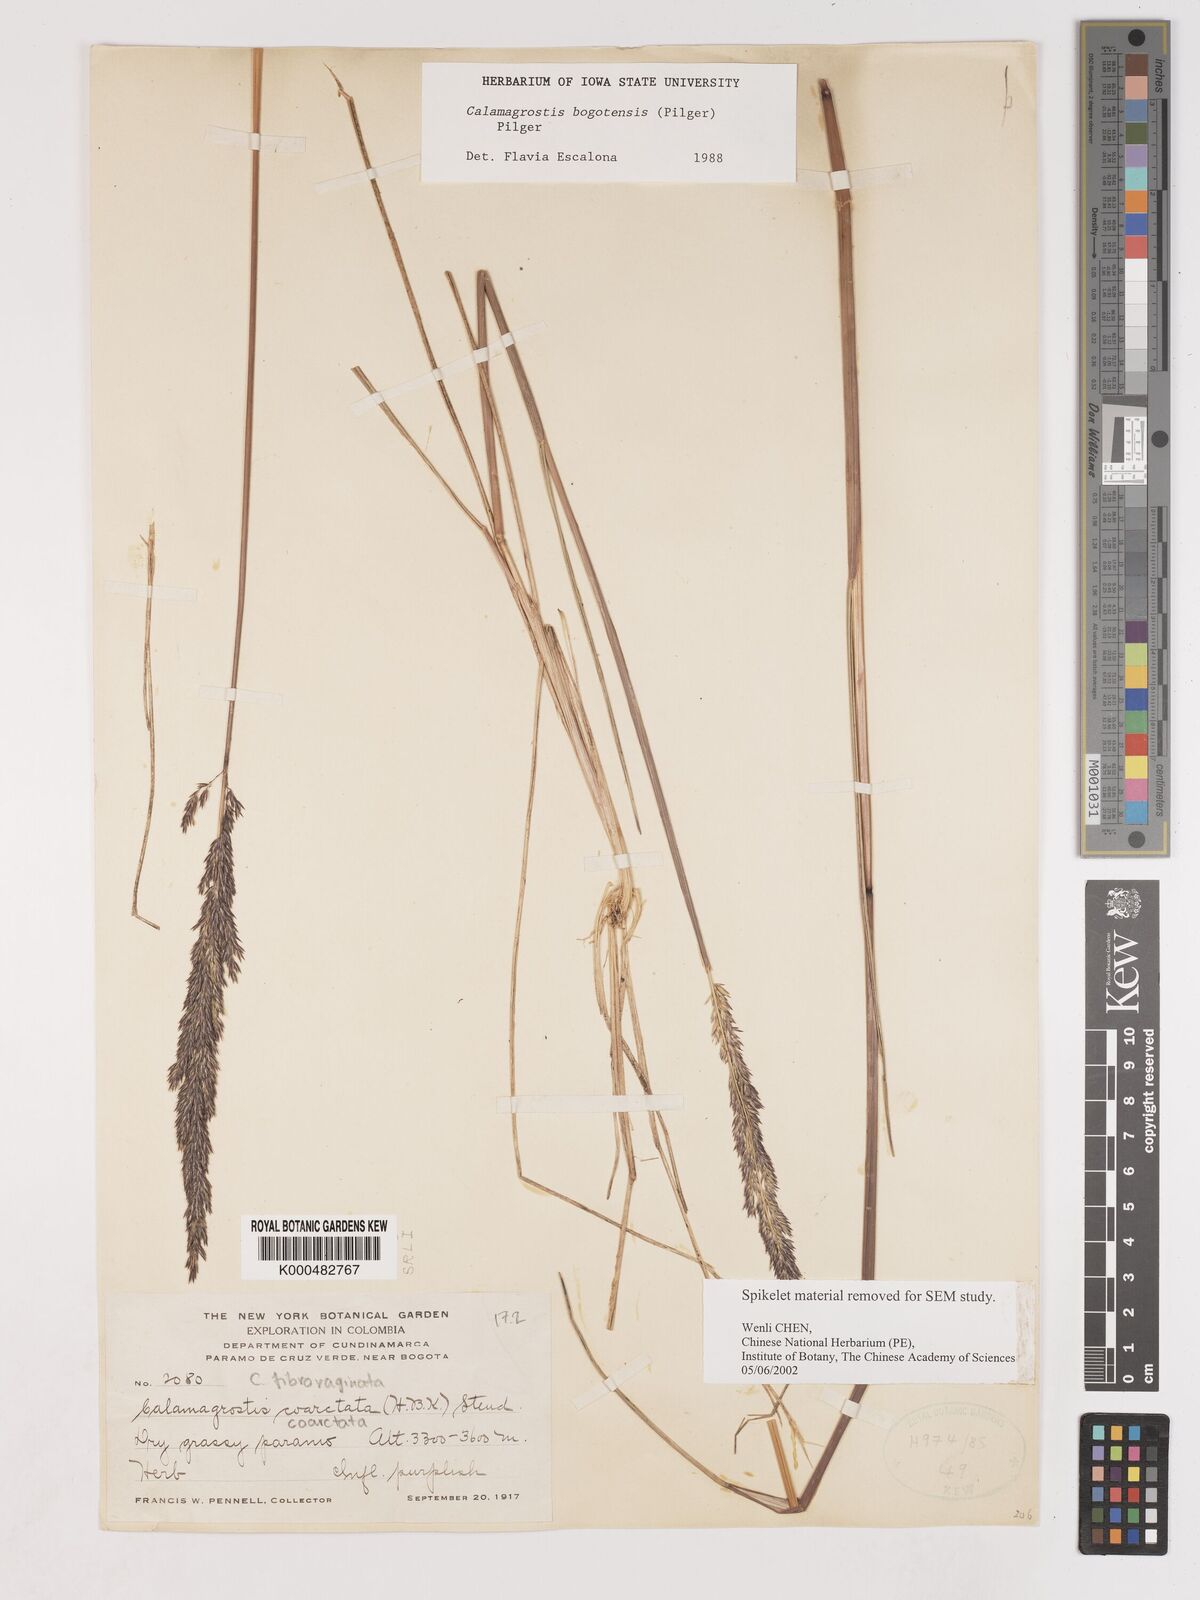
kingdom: Plantae
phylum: Tracheophyta
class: Liliopsida
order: Poales
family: Poaceae
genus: Cinnagrostis
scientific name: Cinnagrostis coarctata
